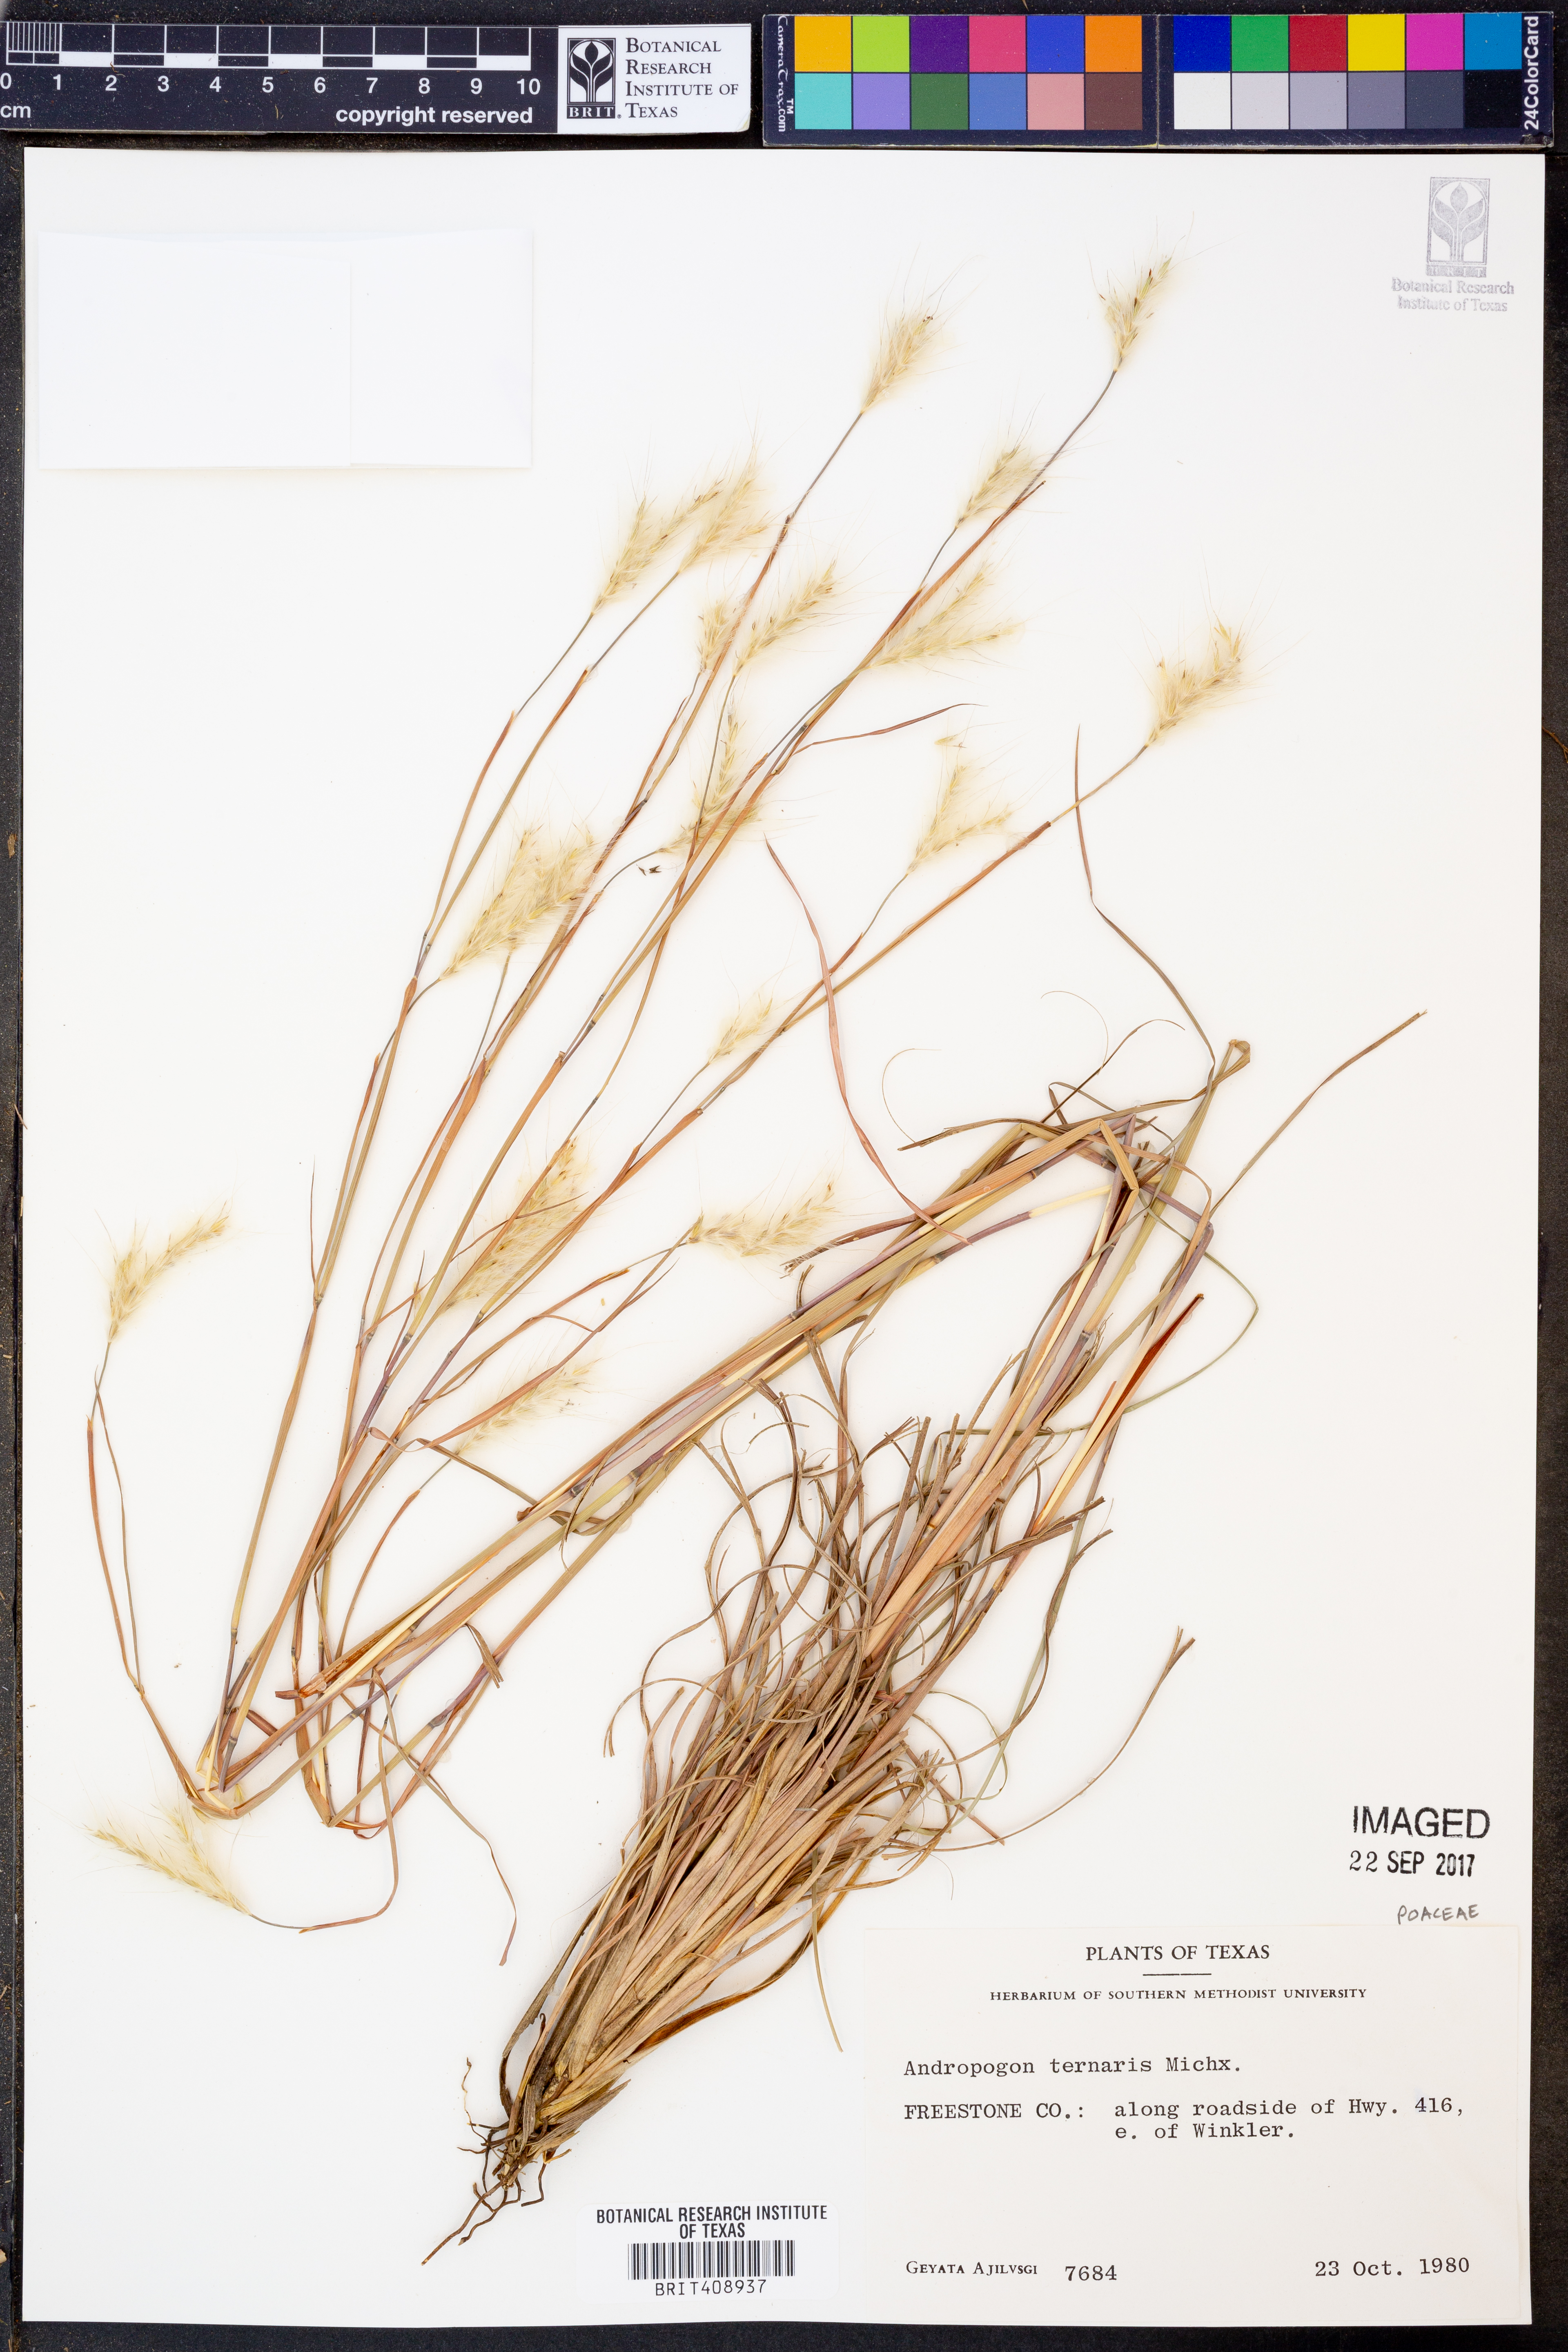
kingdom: Plantae
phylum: Tracheophyta
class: Liliopsida
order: Poales
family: Poaceae
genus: Andropogon
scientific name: Andropogon ternarius
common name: Split bluestem
